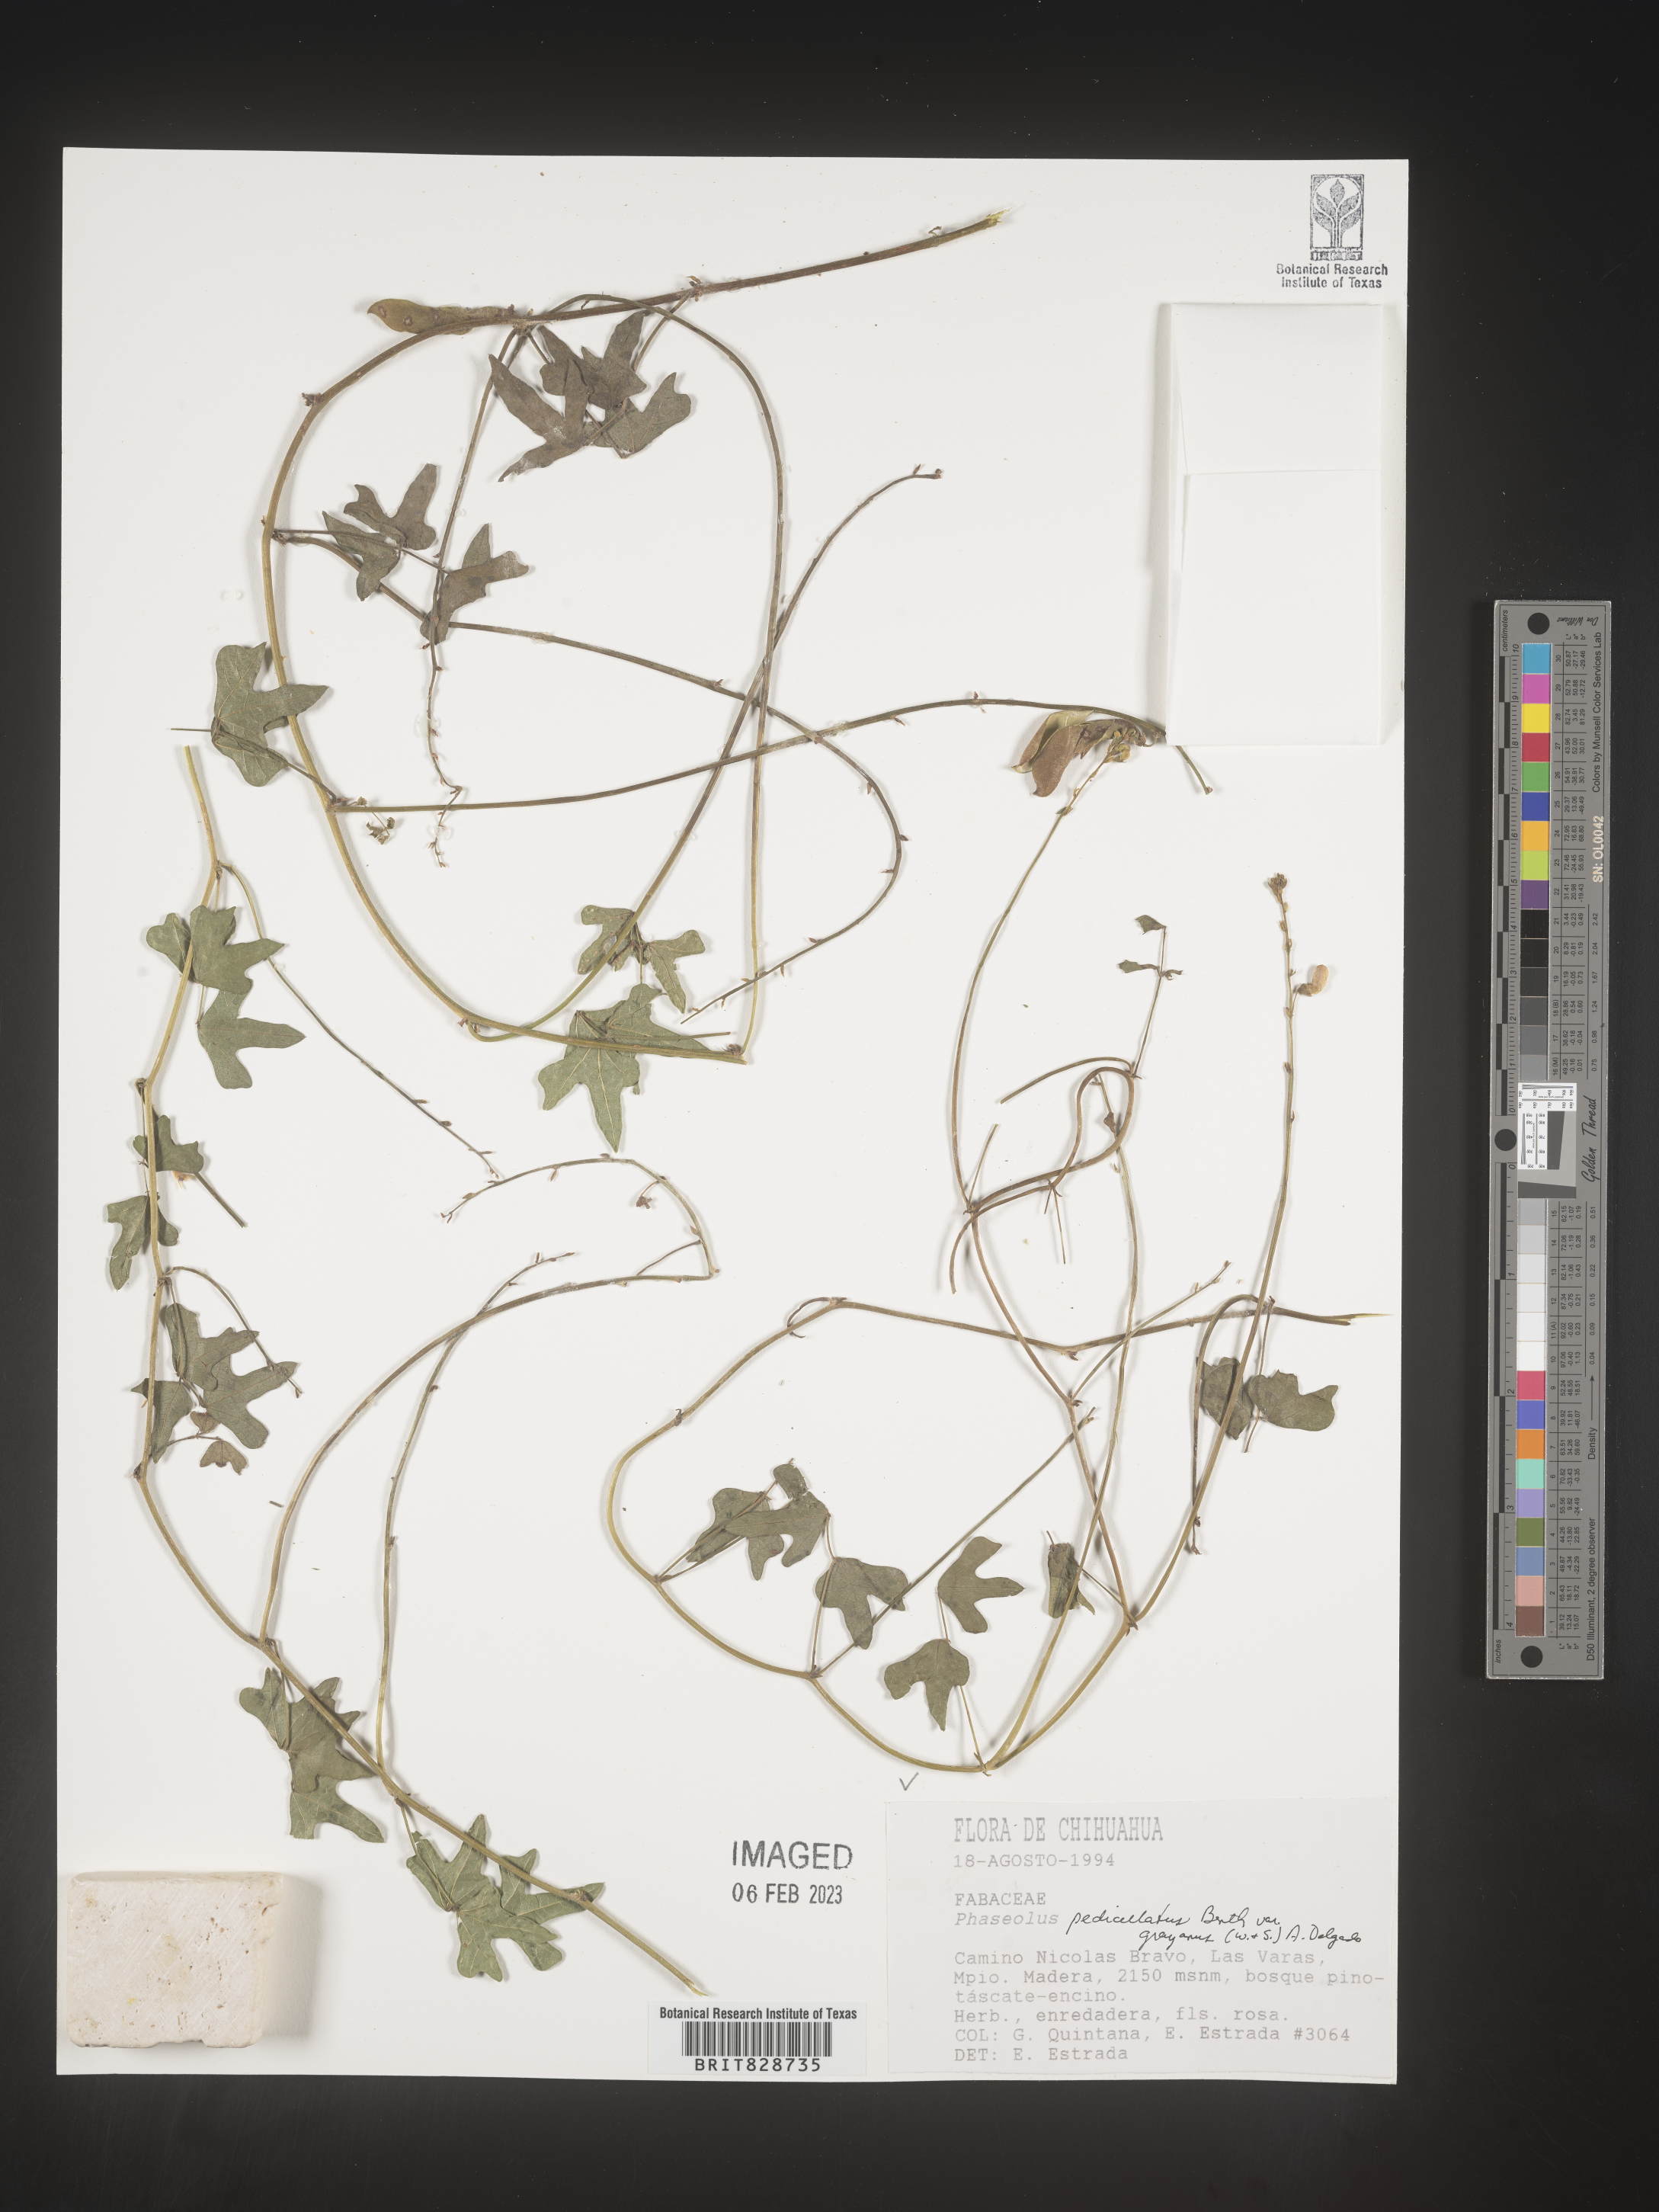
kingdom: Plantae
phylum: Tracheophyta
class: Magnoliopsida
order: Fabales
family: Fabaceae
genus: Phaseolus
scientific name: Phaseolus
